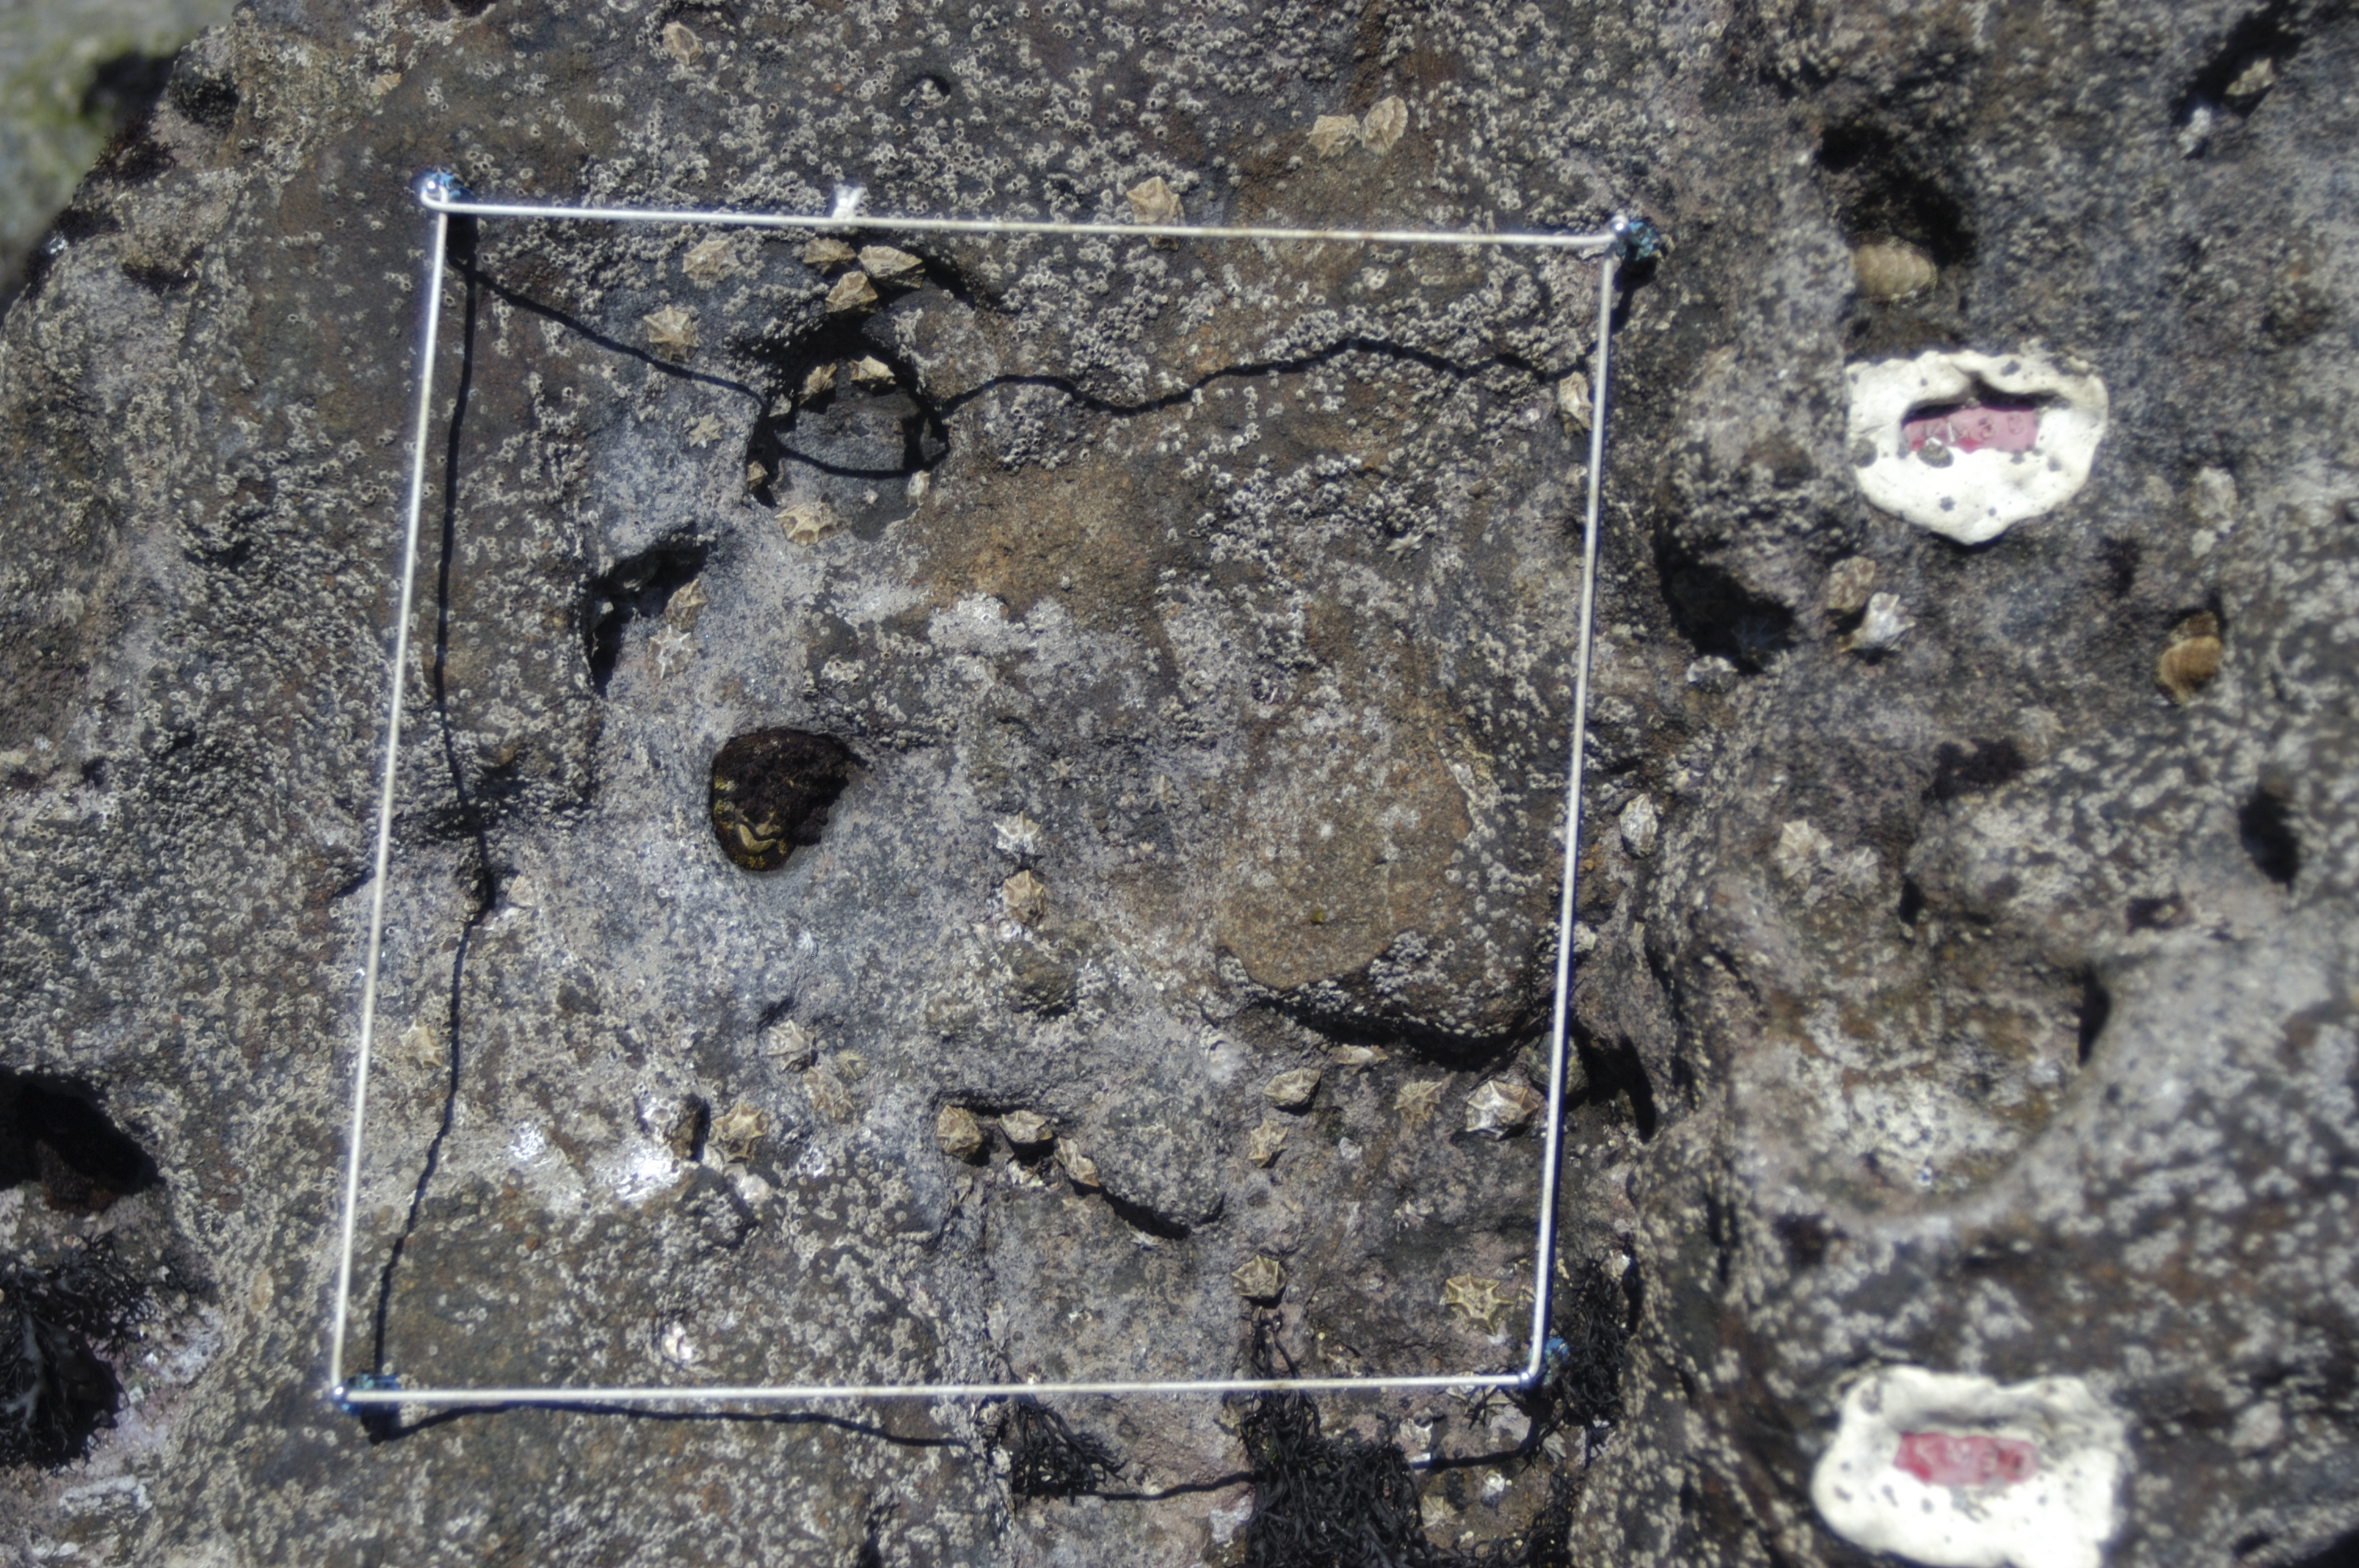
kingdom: Animalia
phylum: Arthropoda
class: Maxillopoda
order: Sessilia
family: Chthamalidae
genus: Chthamalus
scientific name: Chthamalus challengeri
